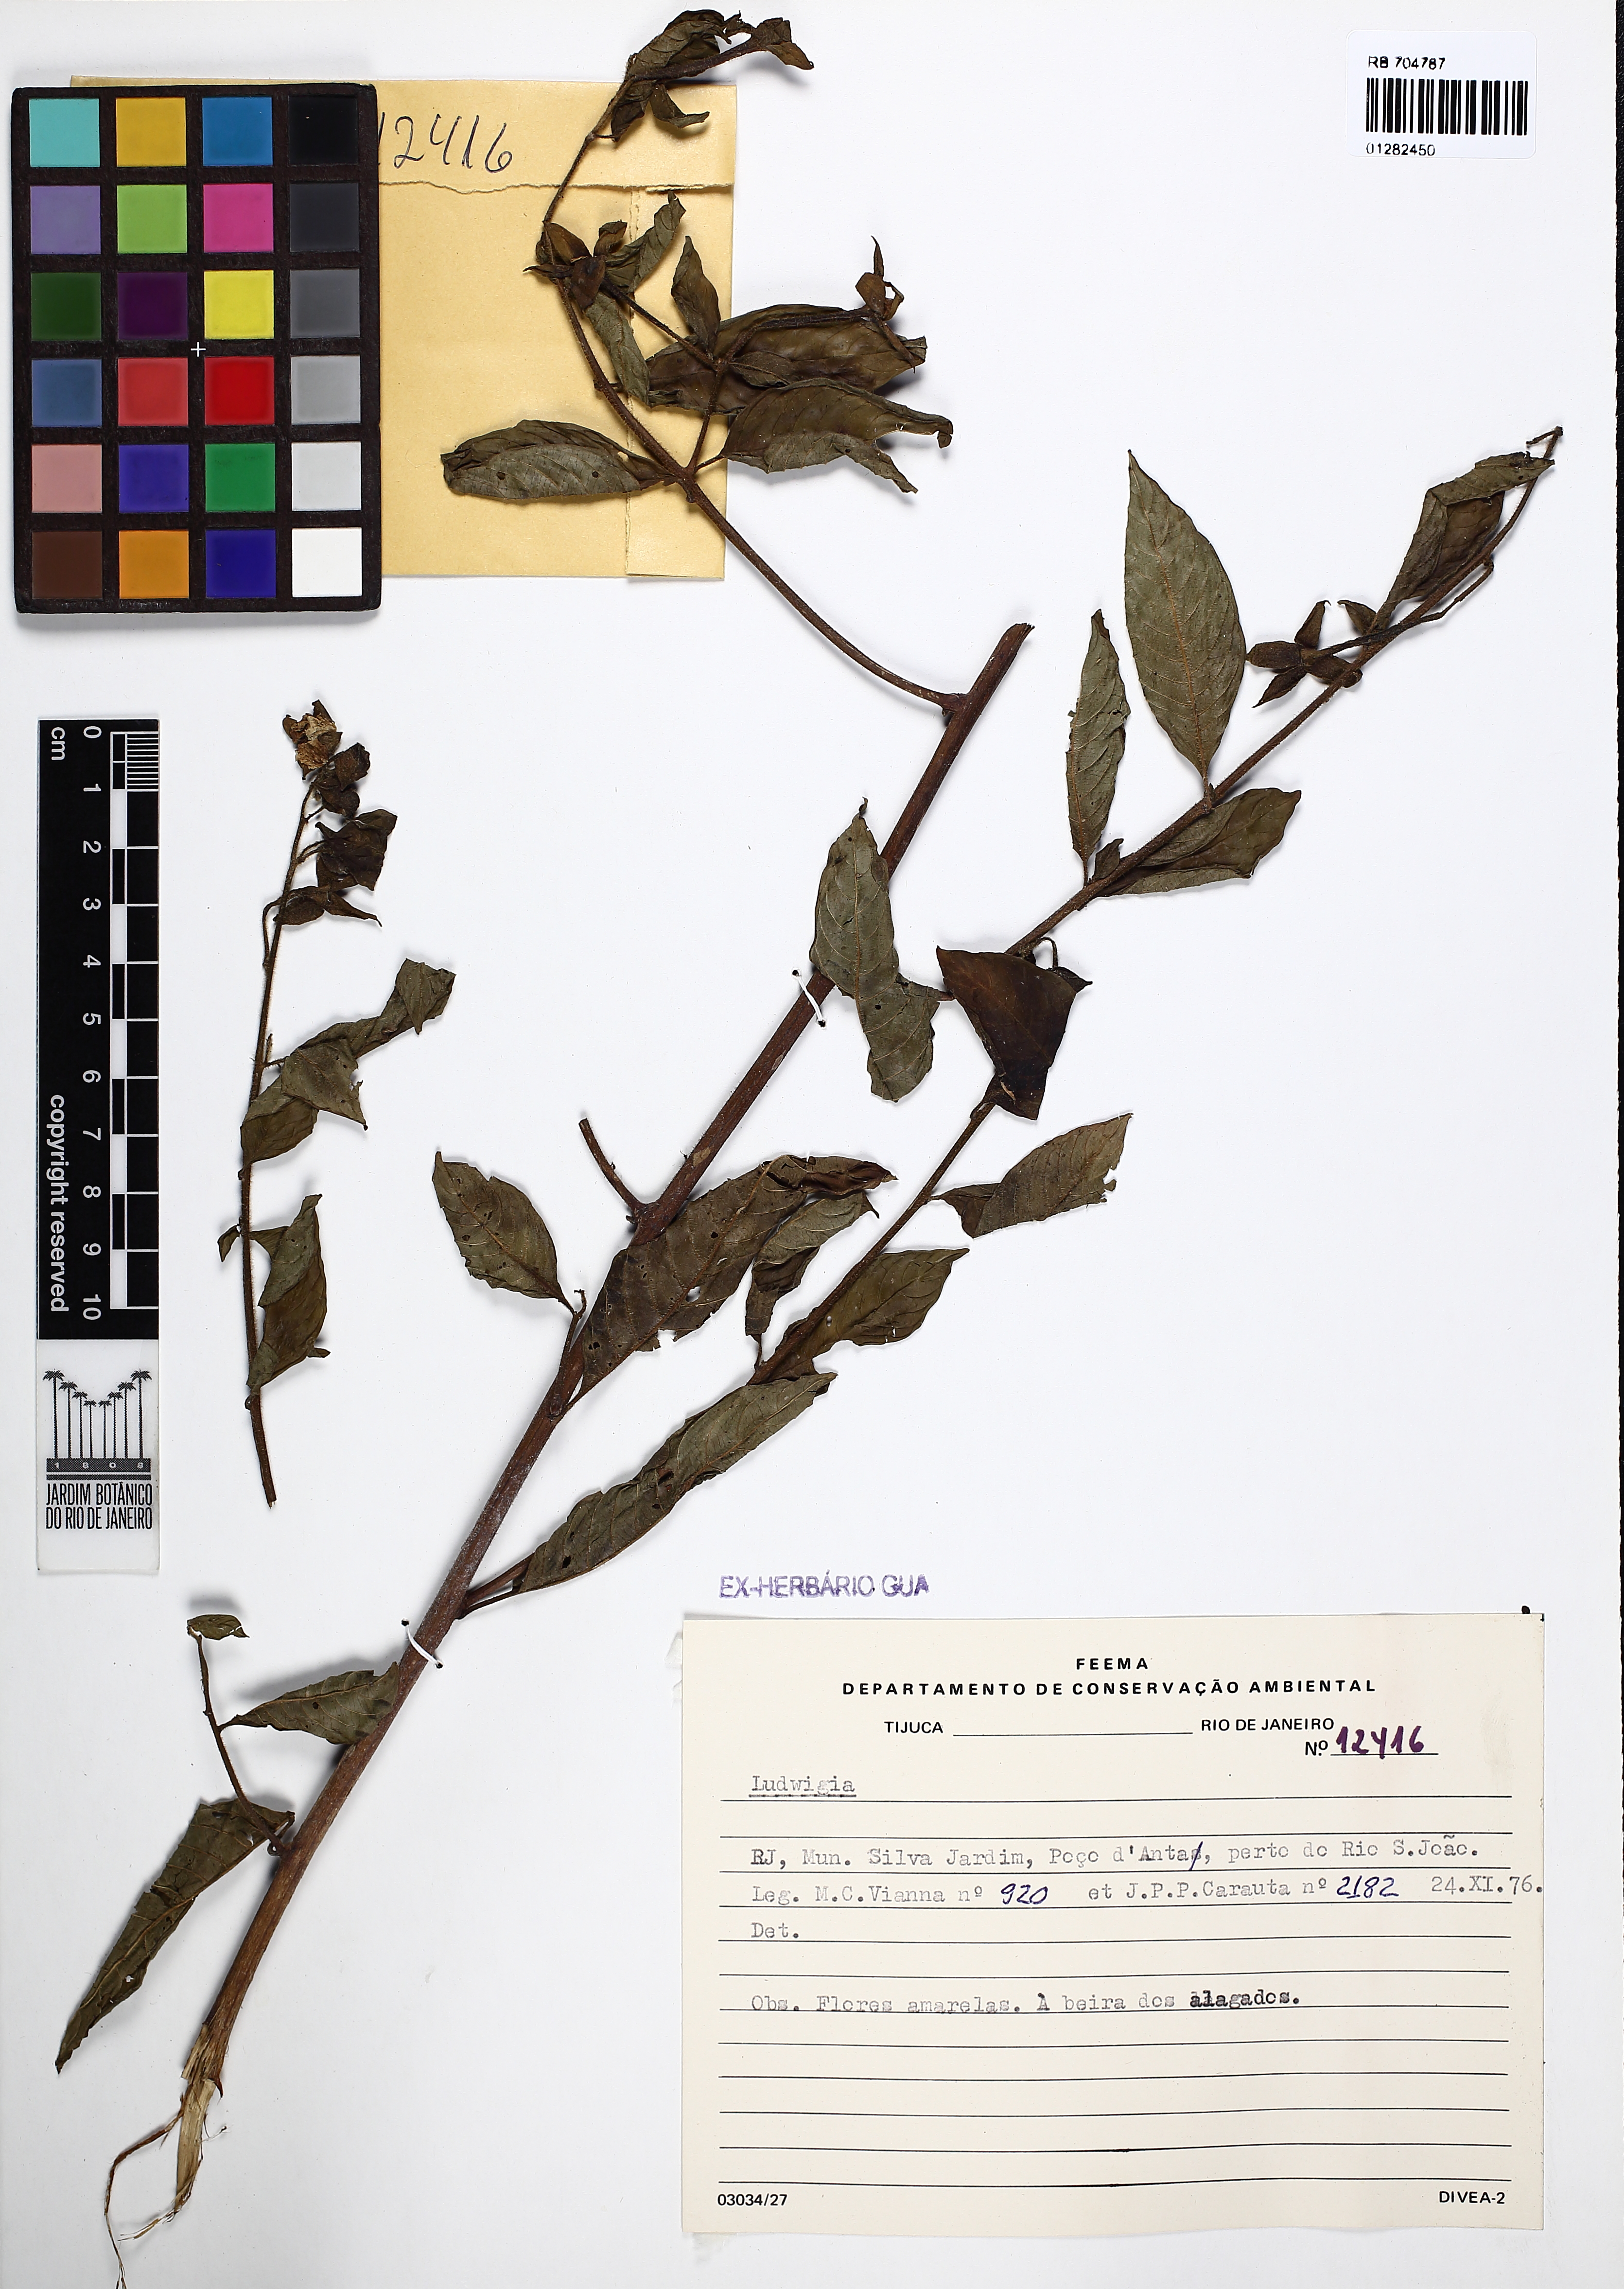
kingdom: Plantae
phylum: Tracheophyta
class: Magnoliopsida
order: Myrtales
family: Onagraceae
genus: Ludwigia
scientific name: Ludwigia
